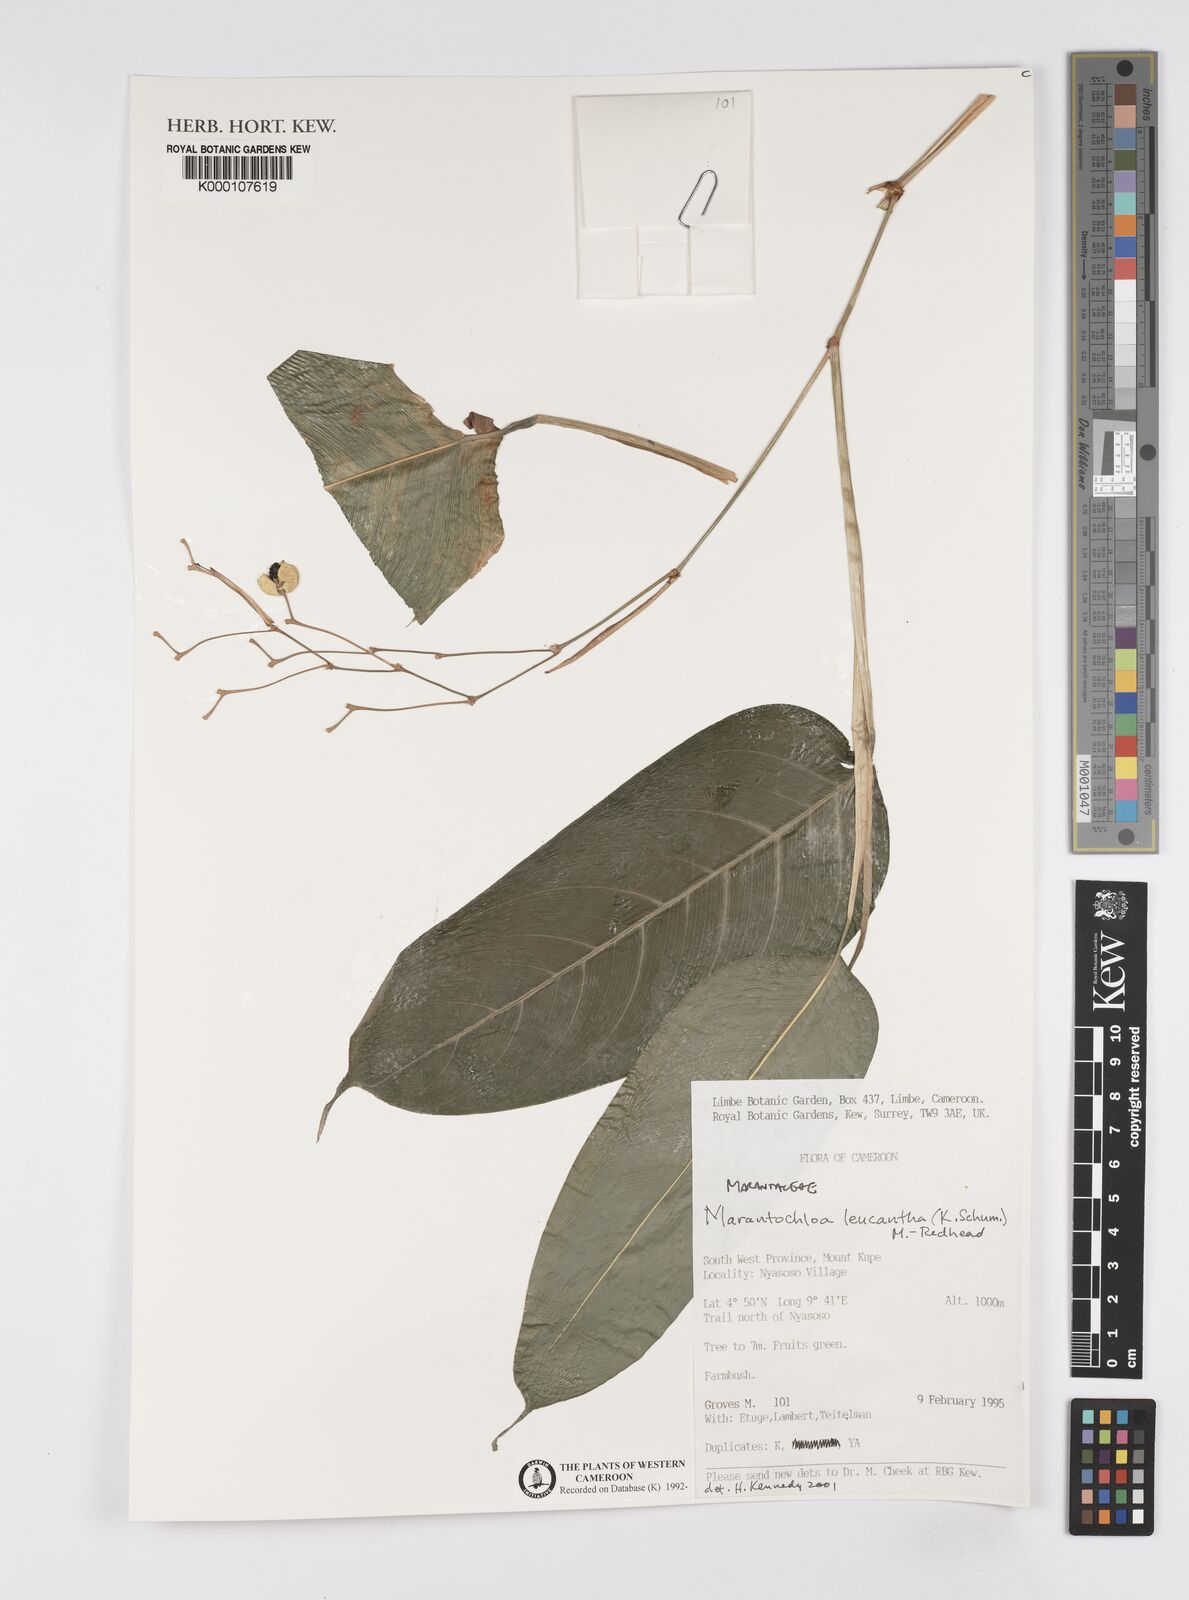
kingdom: Plantae
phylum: Tracheophyta
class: Liliopsida
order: Zingiberales
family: Marantaceae
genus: Marantochloa
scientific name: Marantochloa leucantha
